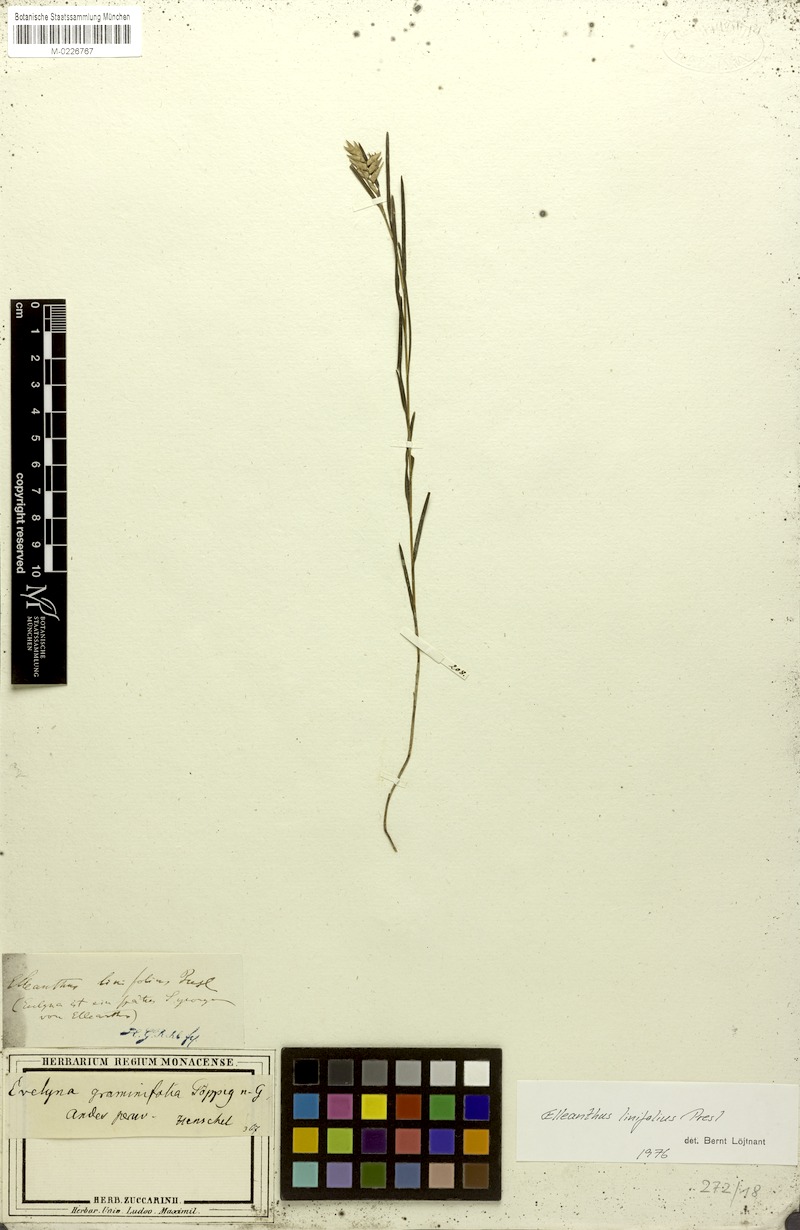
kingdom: Plantae
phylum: Tracheophyta
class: Liliopsida
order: Asparagales
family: Orchidaceae
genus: Elleanthus
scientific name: Elleanthus linifolius
